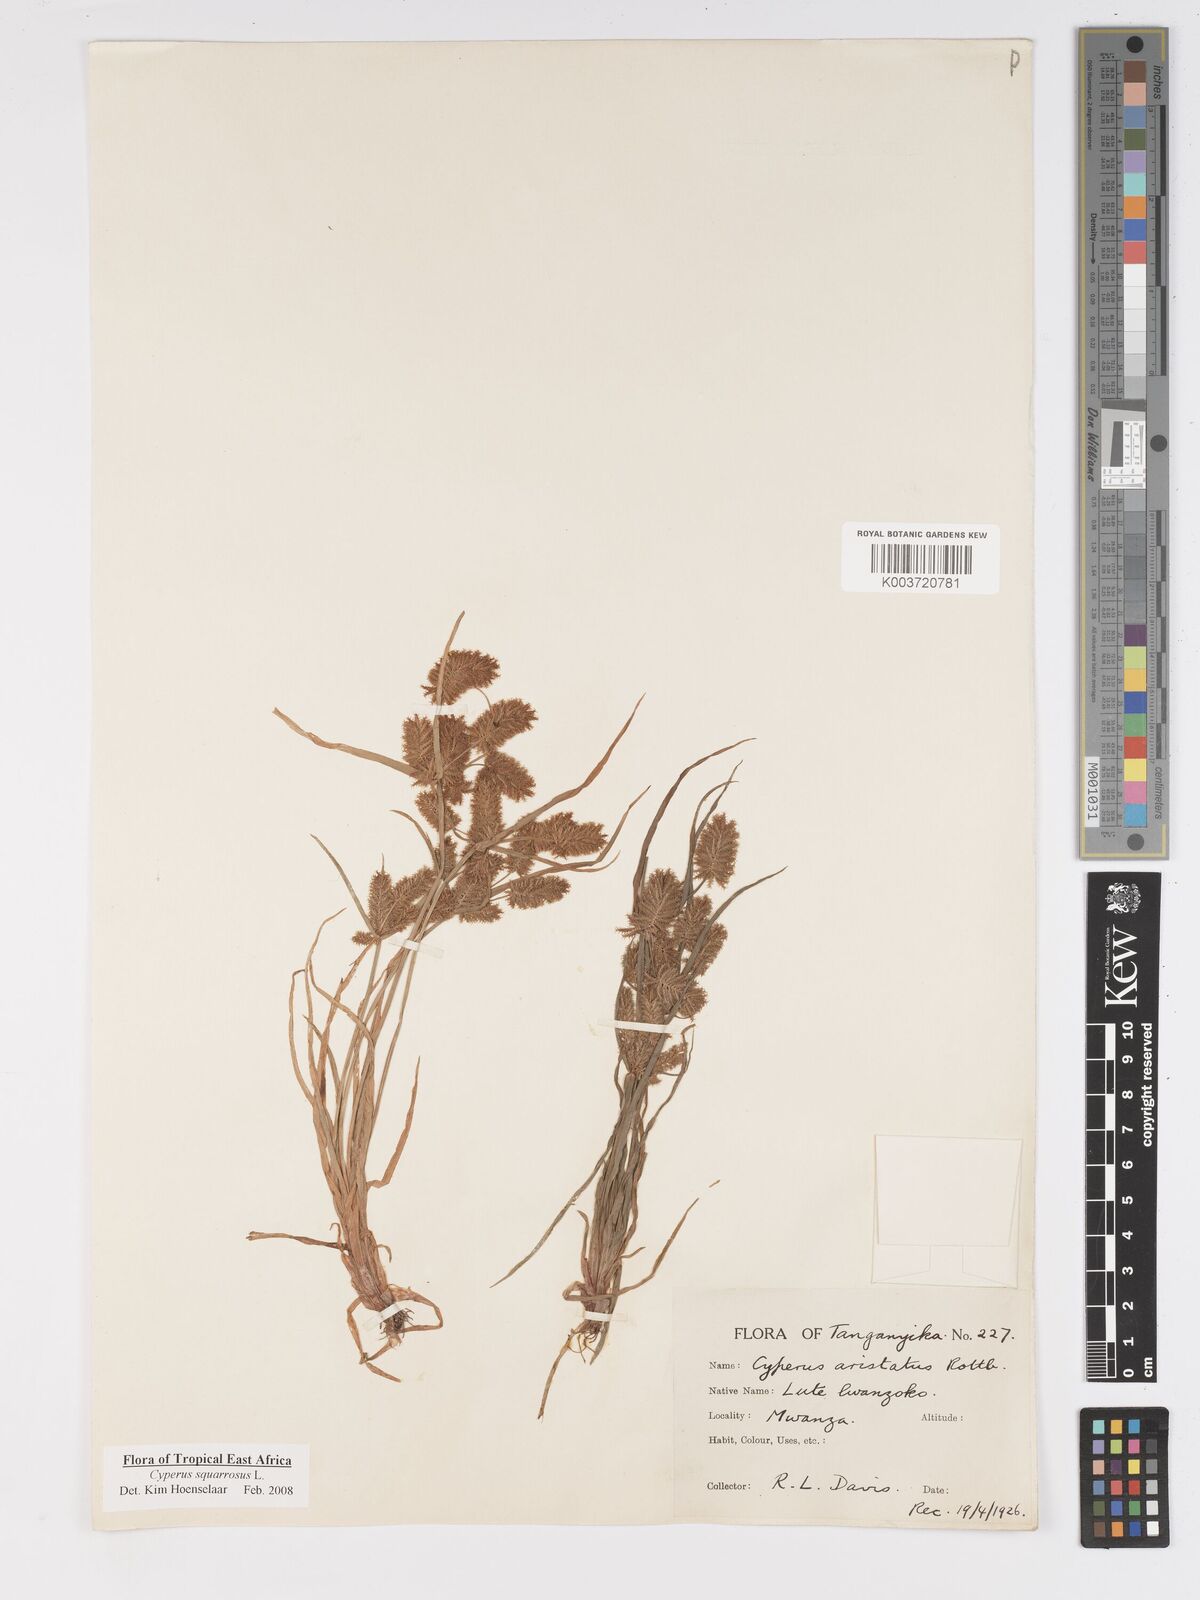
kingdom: Plantae
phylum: Tracheophyta
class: Liliopsida
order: Poales
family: Cyperaceae
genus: Cyperus
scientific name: Cyperus squarrosus
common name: Awned cyperus
